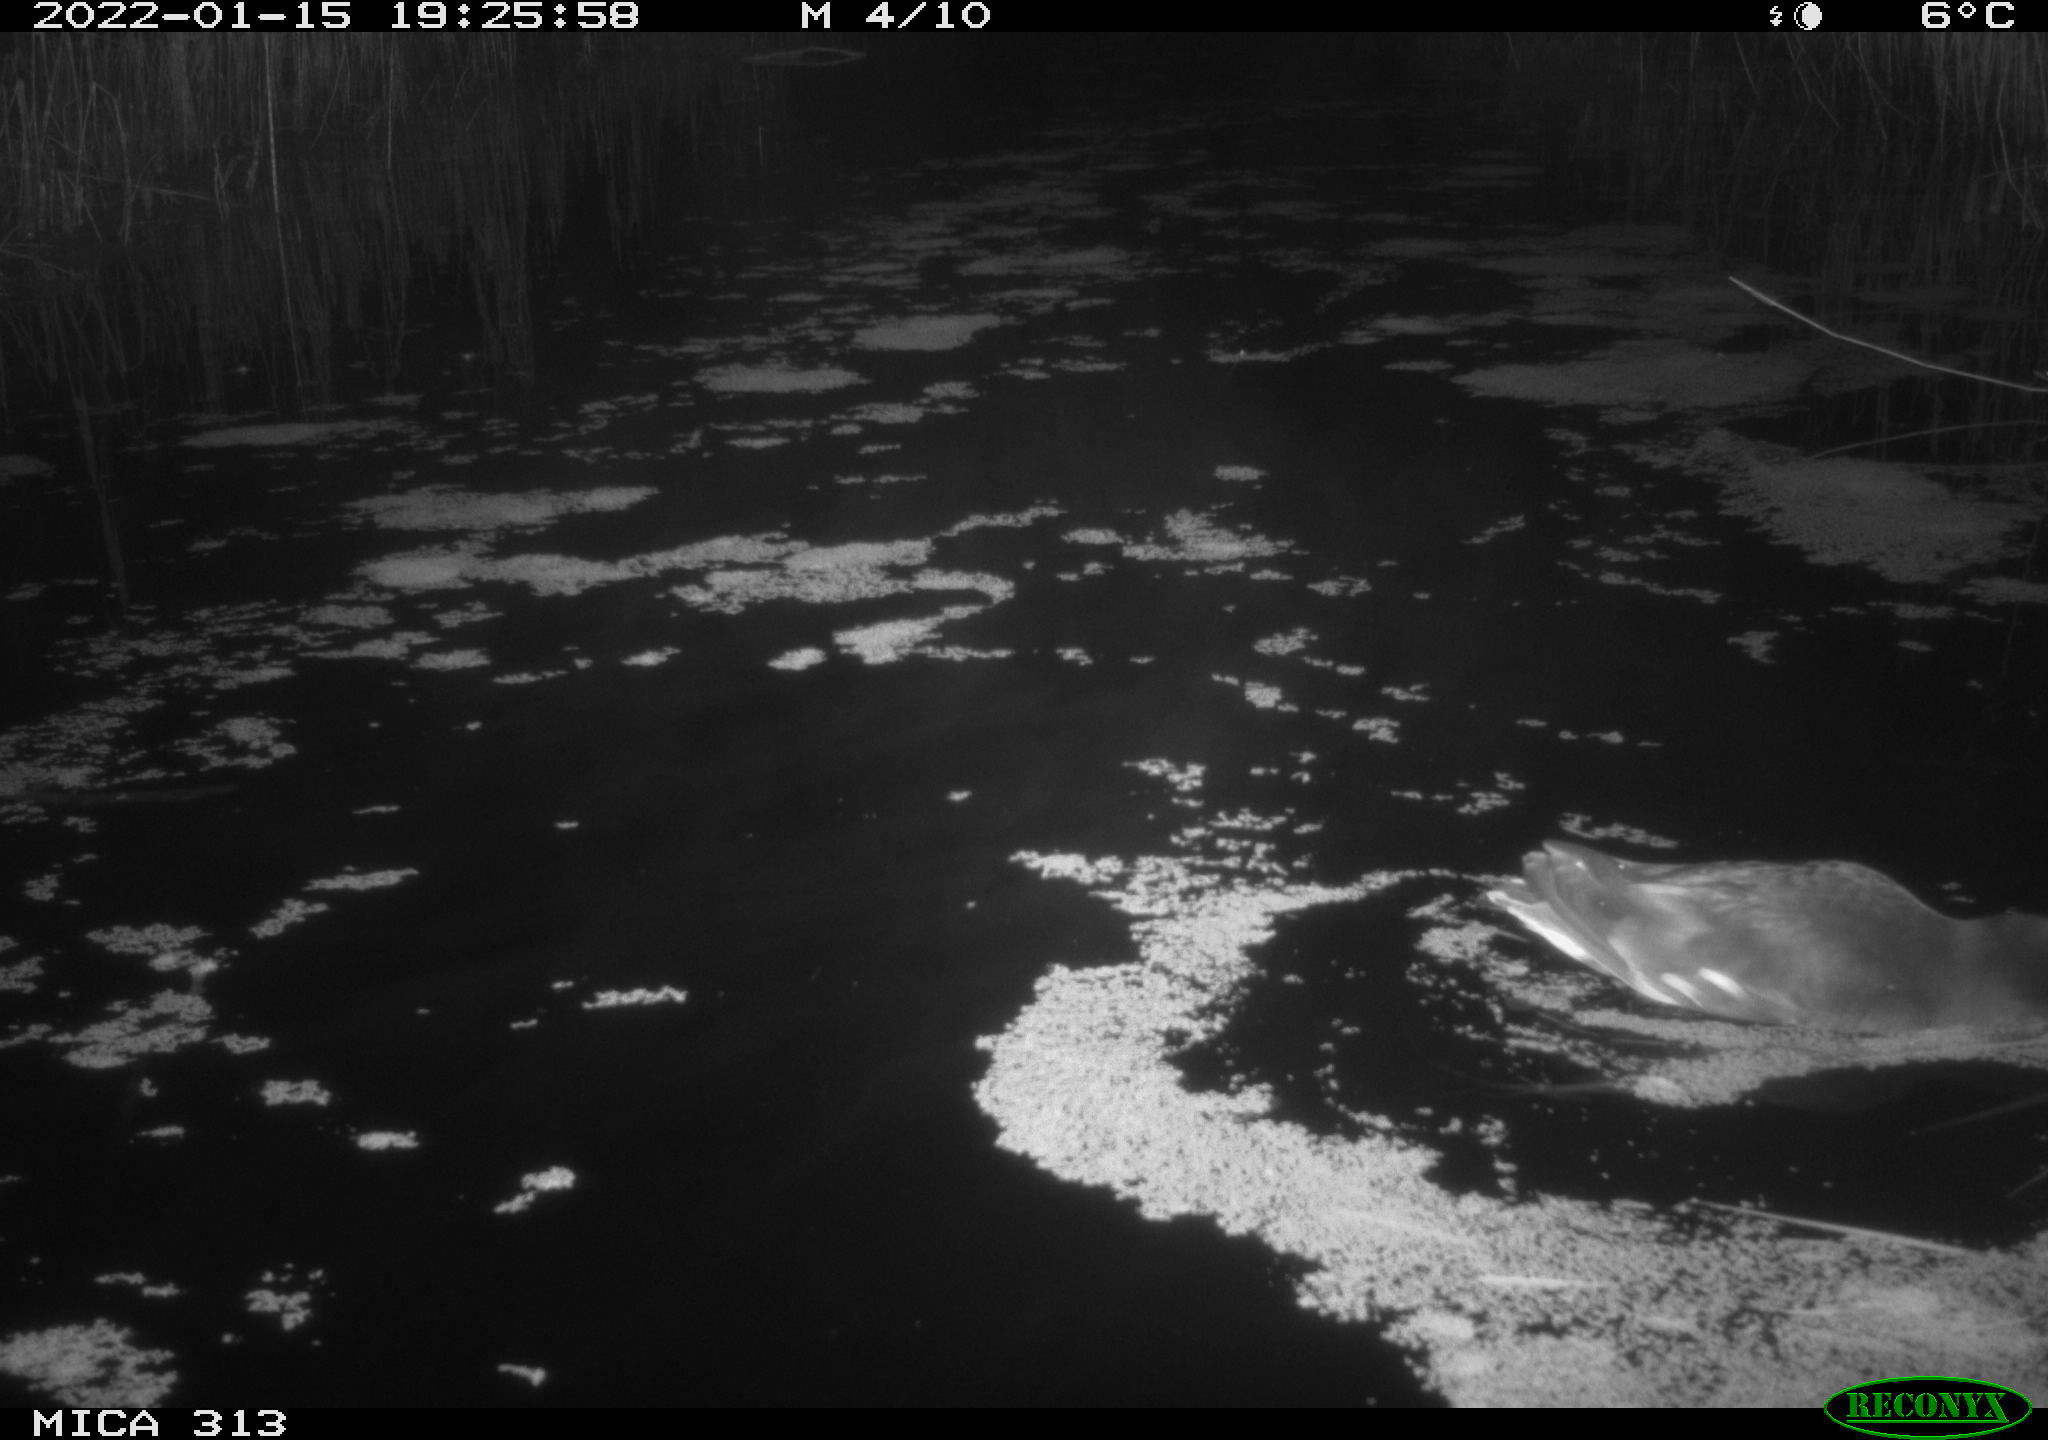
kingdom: Animalia
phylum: Chordata
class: Aves
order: Gruiformes
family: Rallidae
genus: Gallinula
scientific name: Gallinula chloropus
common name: Common moorhen
